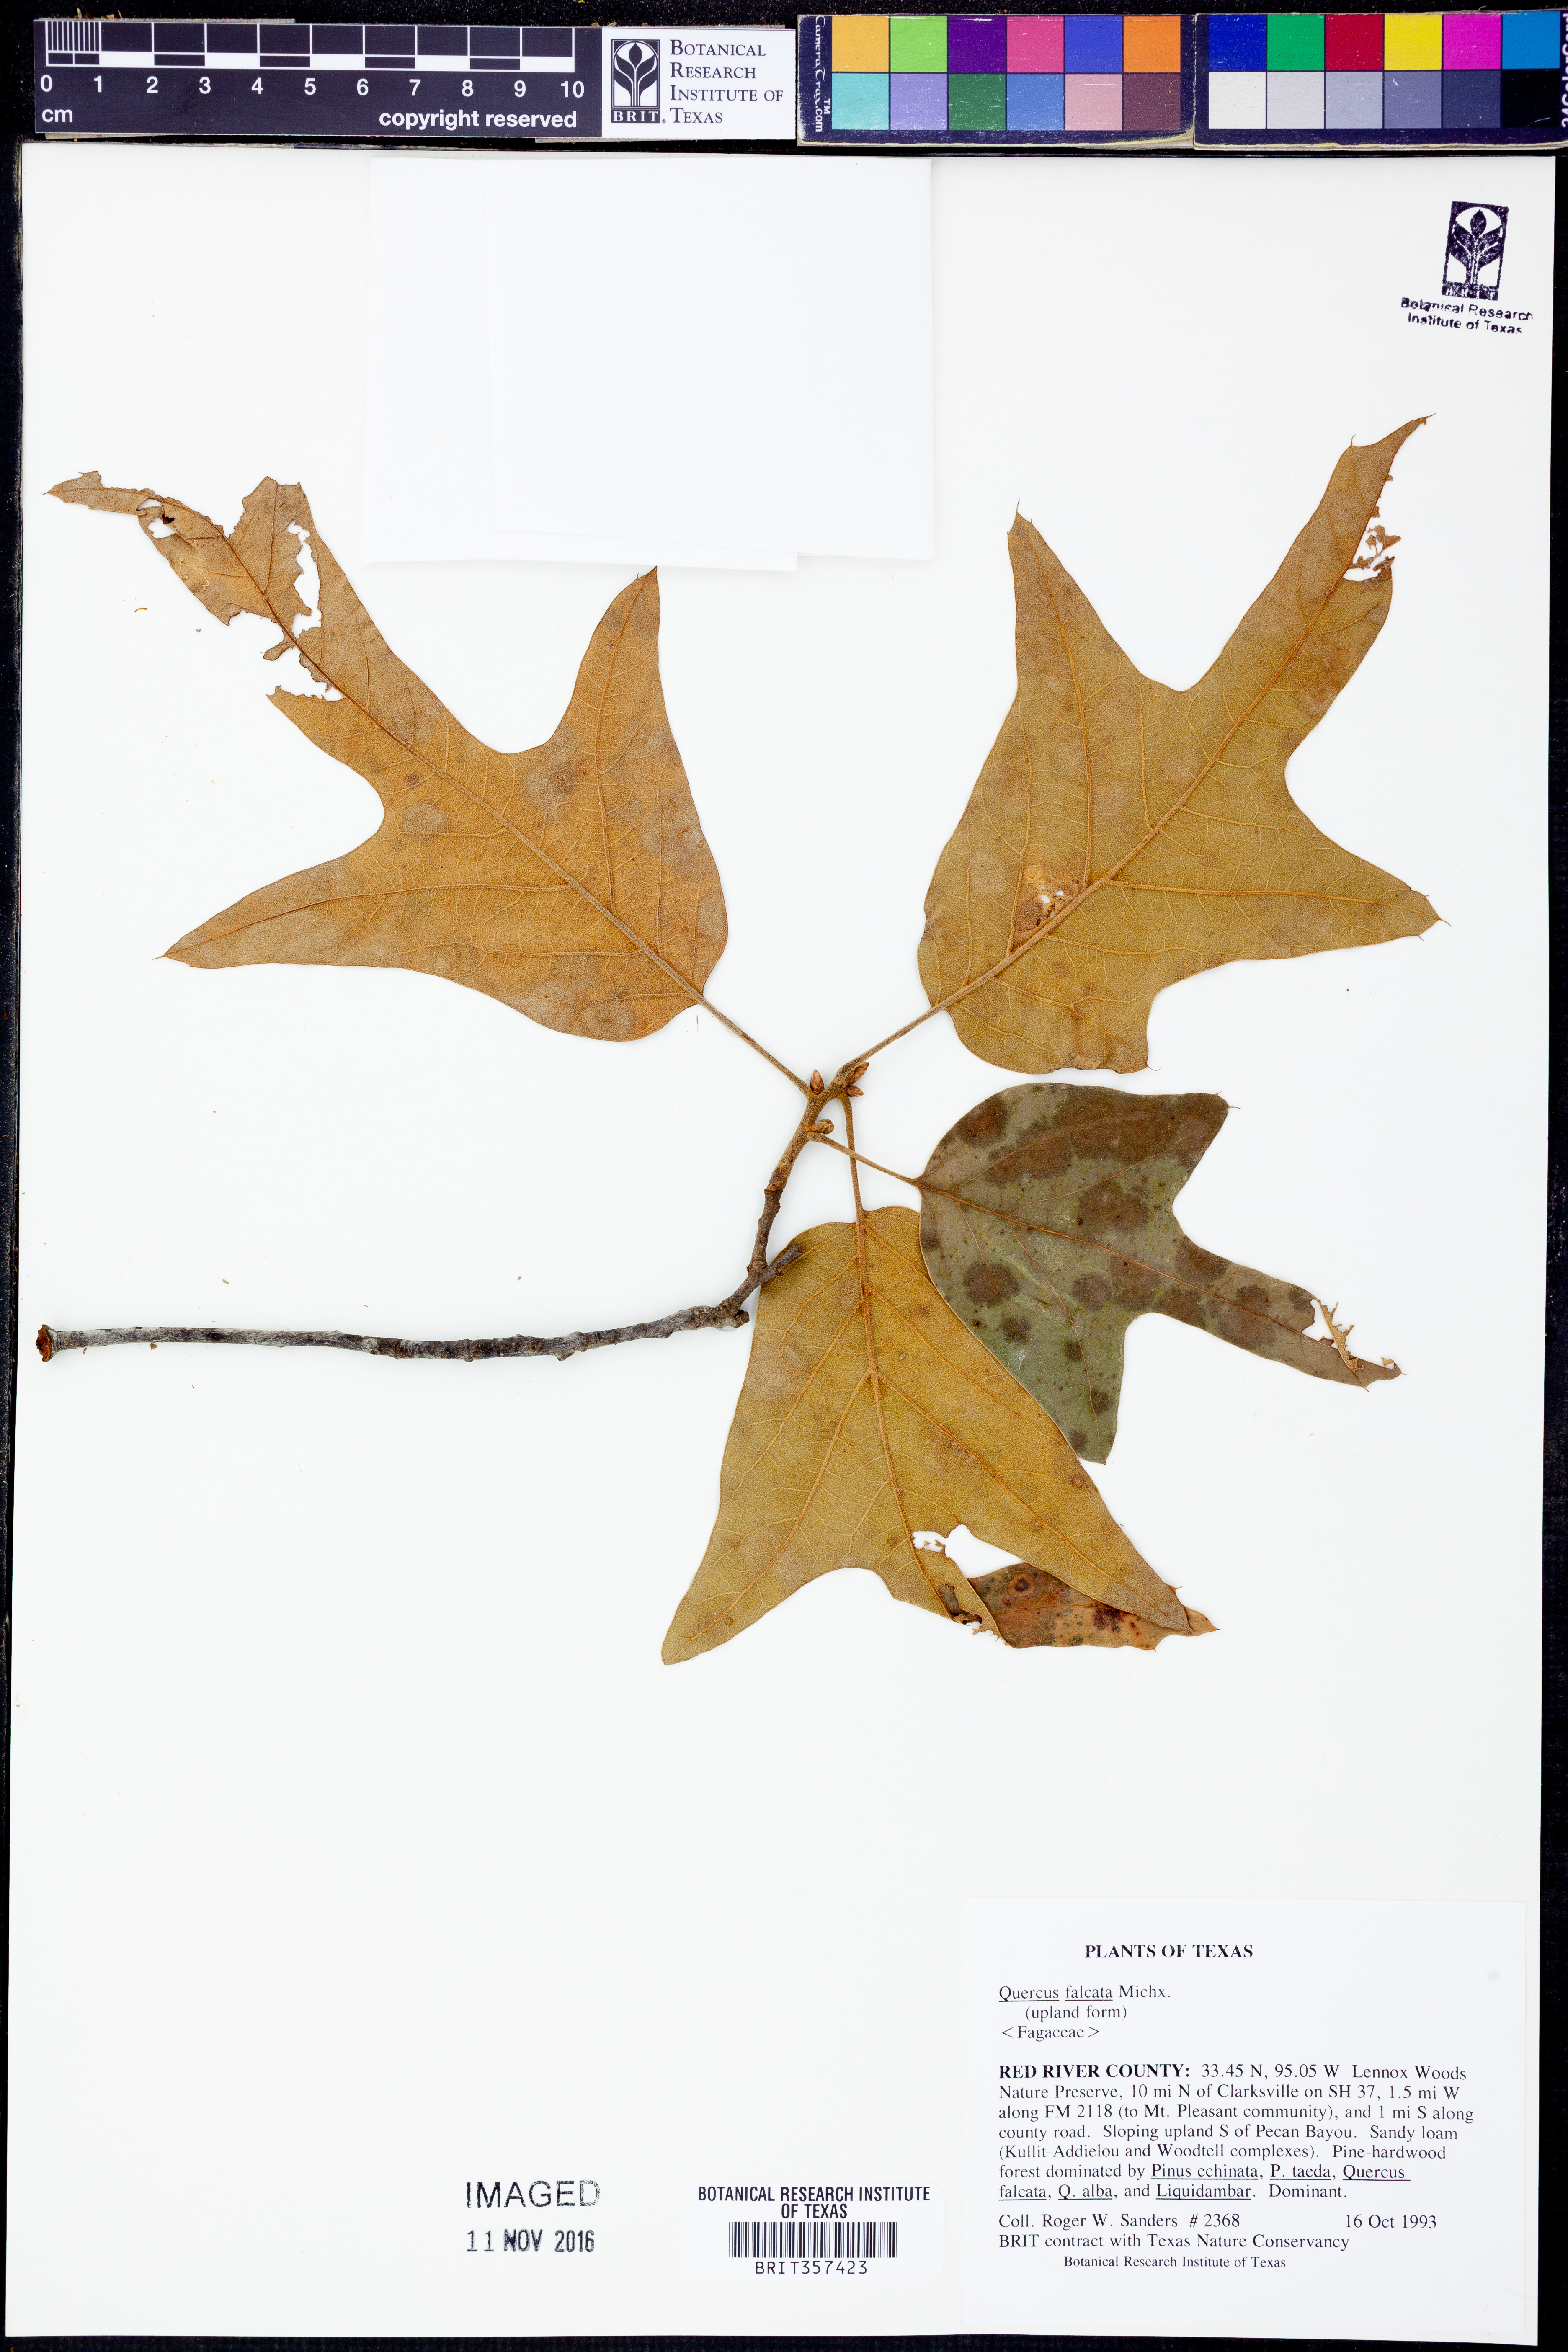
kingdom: Plantae
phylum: Tracheophyta
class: Magnoliopsida
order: Fagales
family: Fagaceae
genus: Quercus
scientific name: Quercus falcata
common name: Southern red oak
